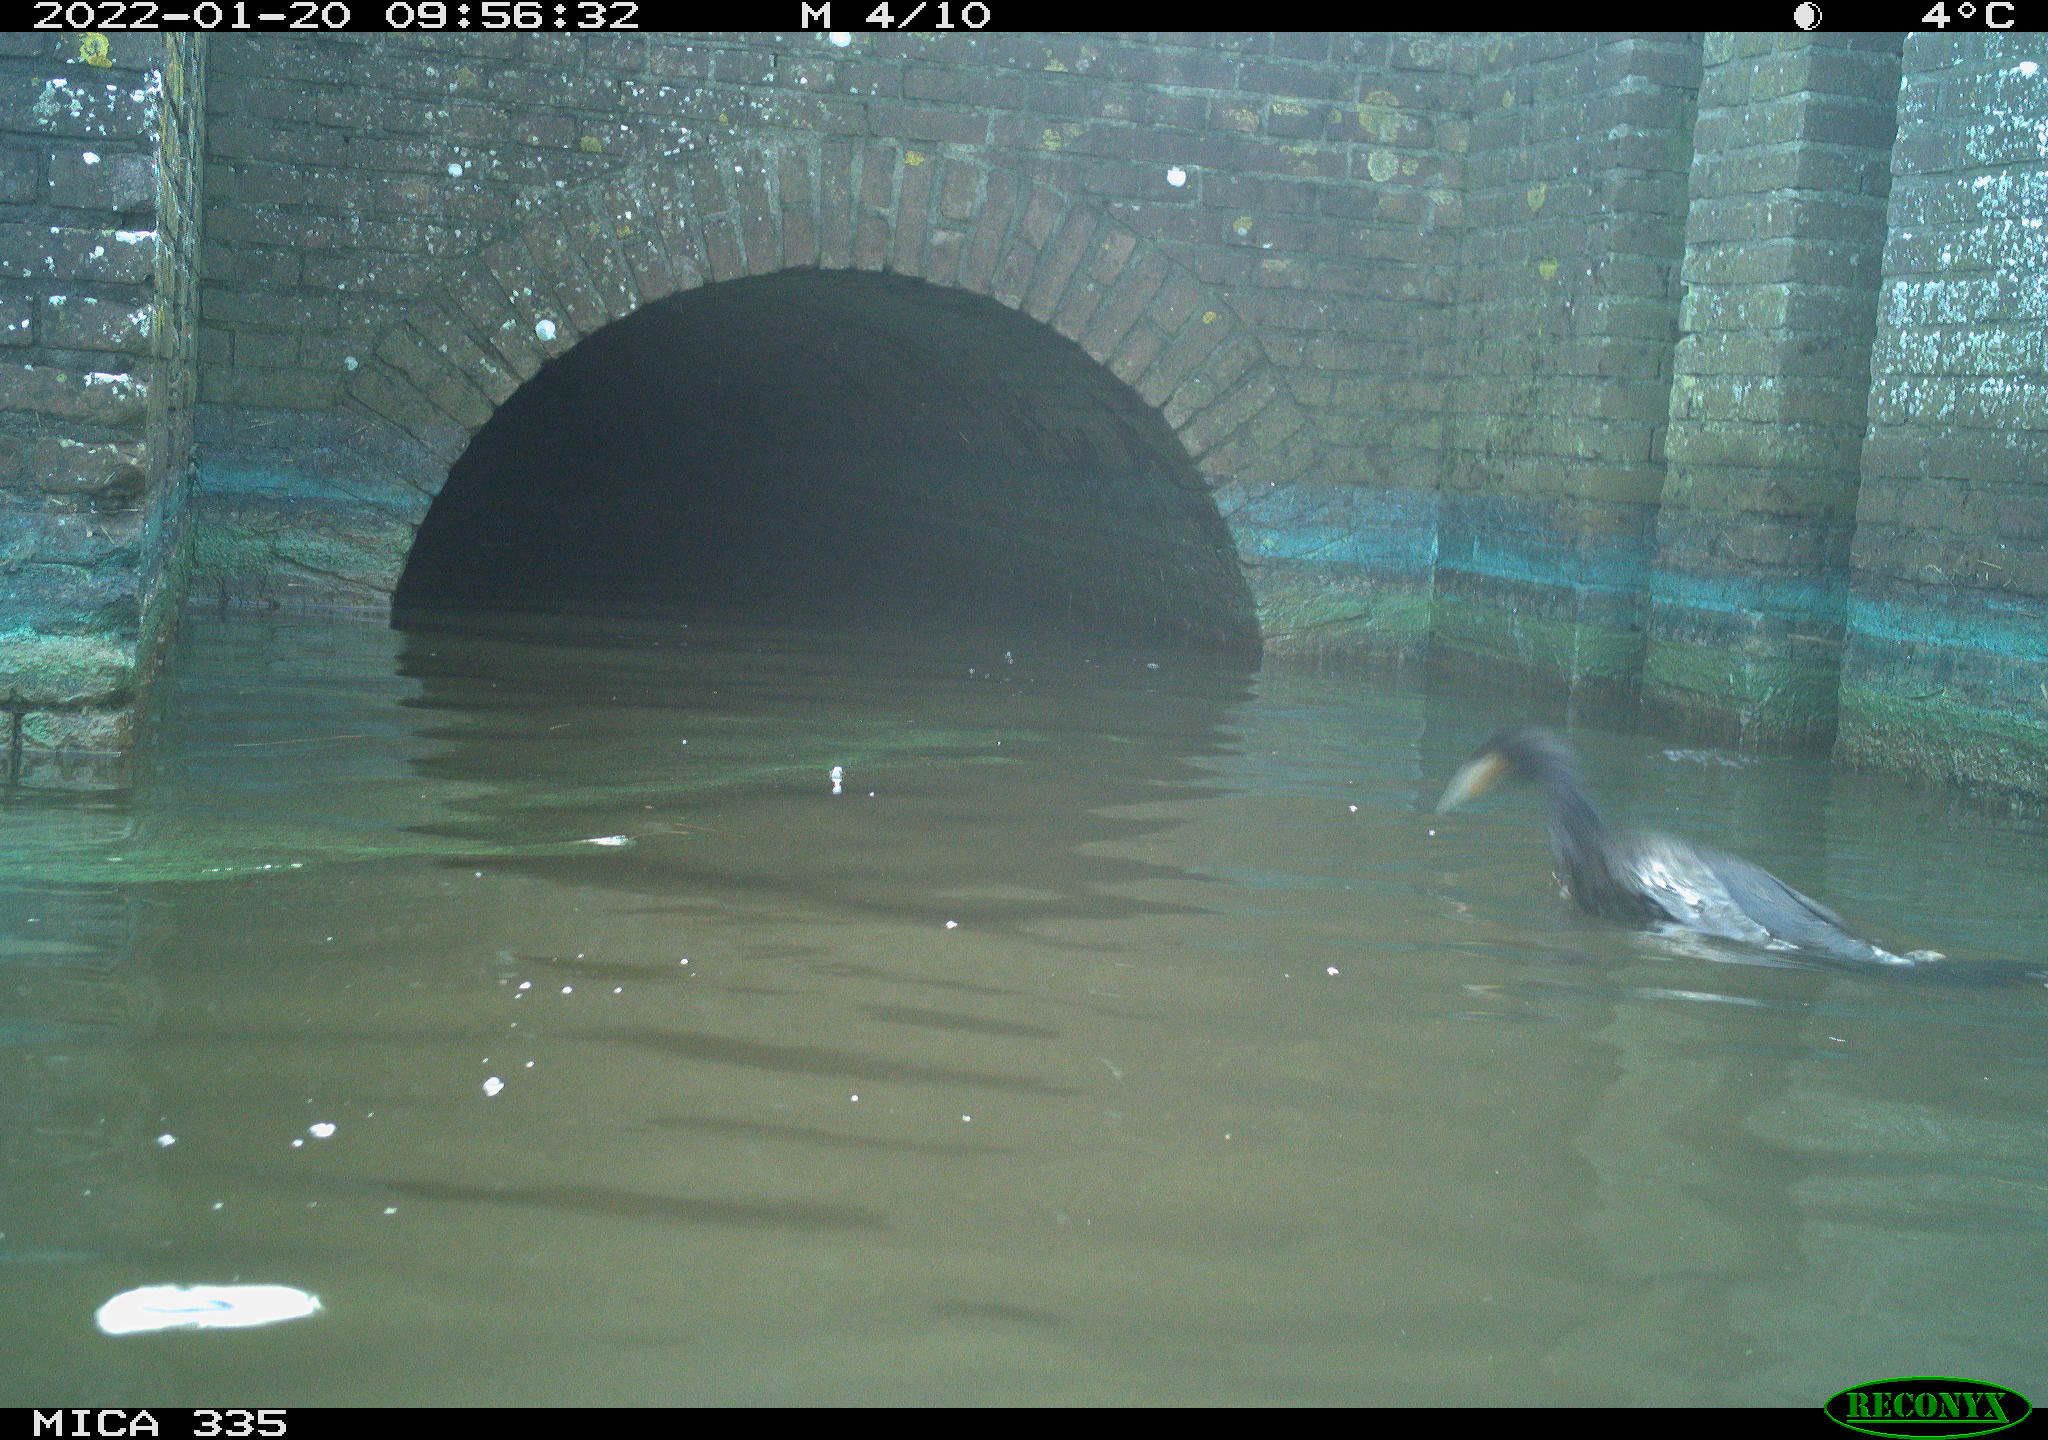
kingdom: Animalia
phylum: Chordata
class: Aves
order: Suliformes
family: Phalacrocoracidae
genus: Phalacrocorax
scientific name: Phalacrocorax carbo
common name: Great cormorant
